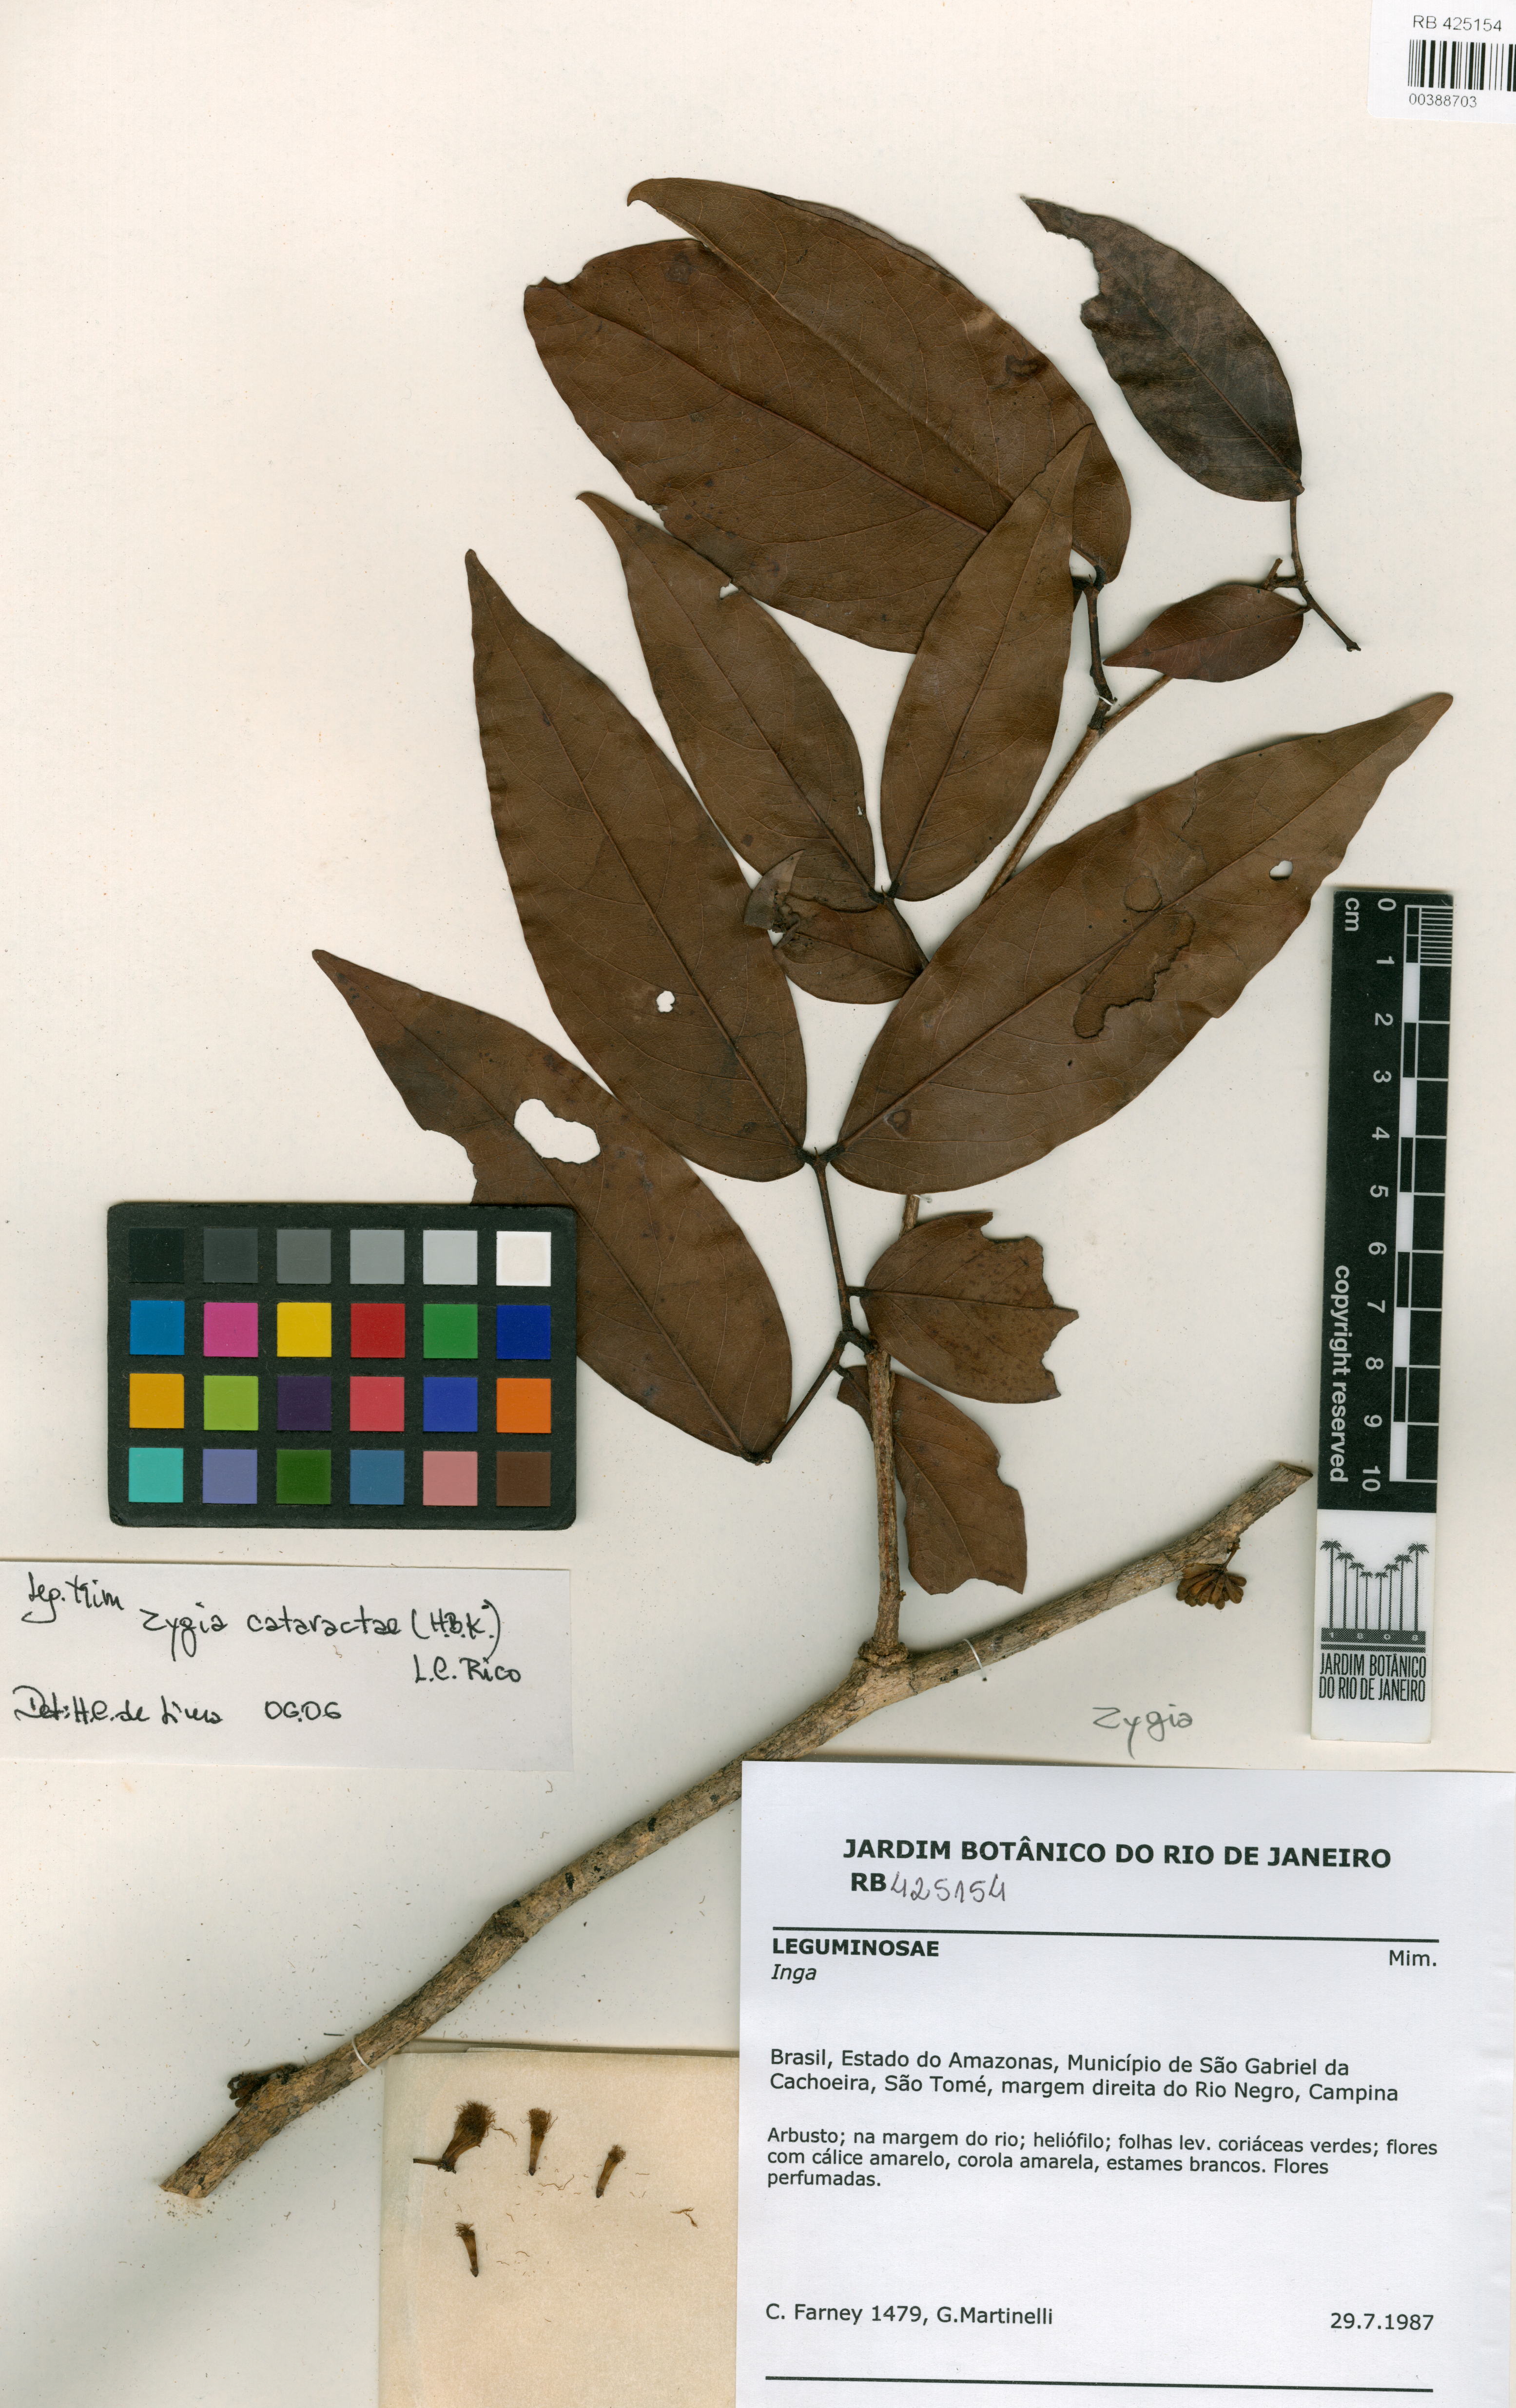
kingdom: Plantae
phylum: Tracheophyta
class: Magnoliopsida
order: Fabales
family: Fabaceae
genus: Zygia
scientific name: Zygia cataractae
